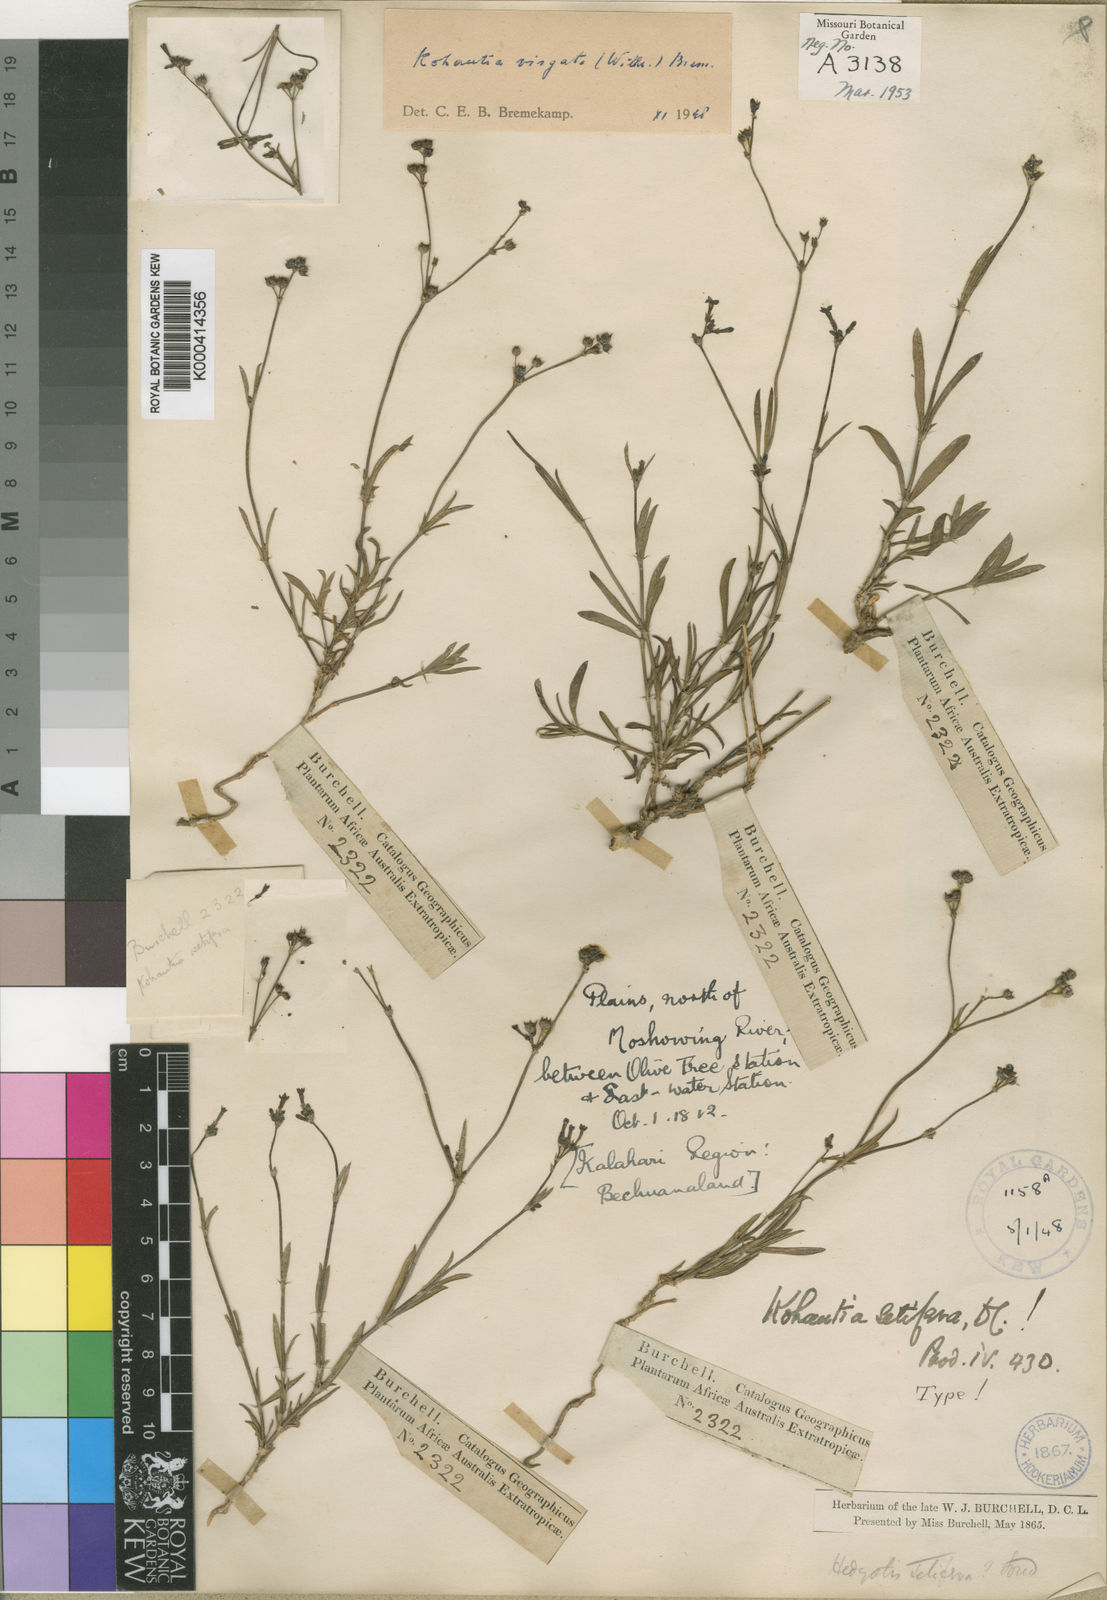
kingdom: Plantae
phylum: Tracheophyta
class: Magnoliopsida
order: Gentianales
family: Rubiaceae
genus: Cordylostigma
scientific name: Cordylostigma virgatum
